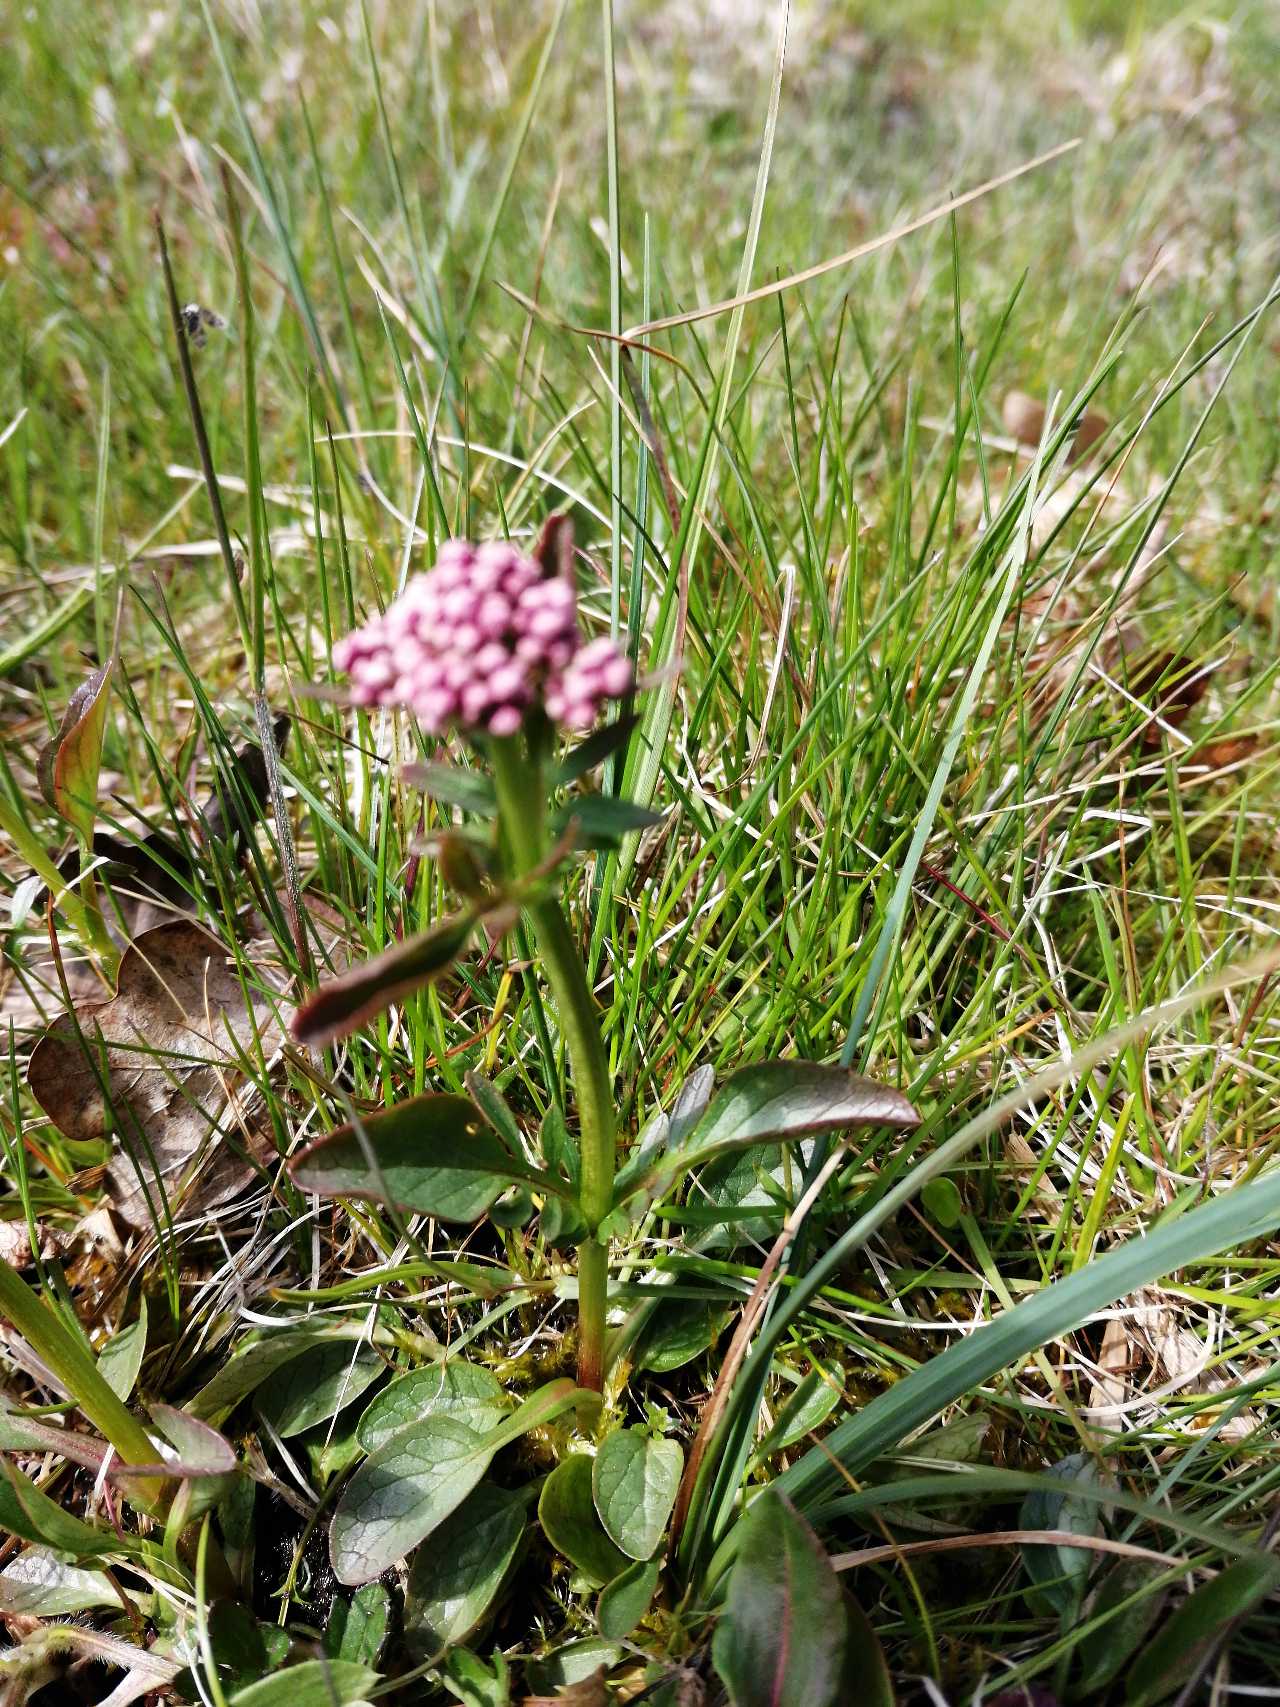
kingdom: Plantae
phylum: Tracheophyta
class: Magnoliopsida
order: Dipsacales
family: Caprifoliaceae
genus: Valeriana
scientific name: Valeriana dioica
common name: Tvebo baldrian
